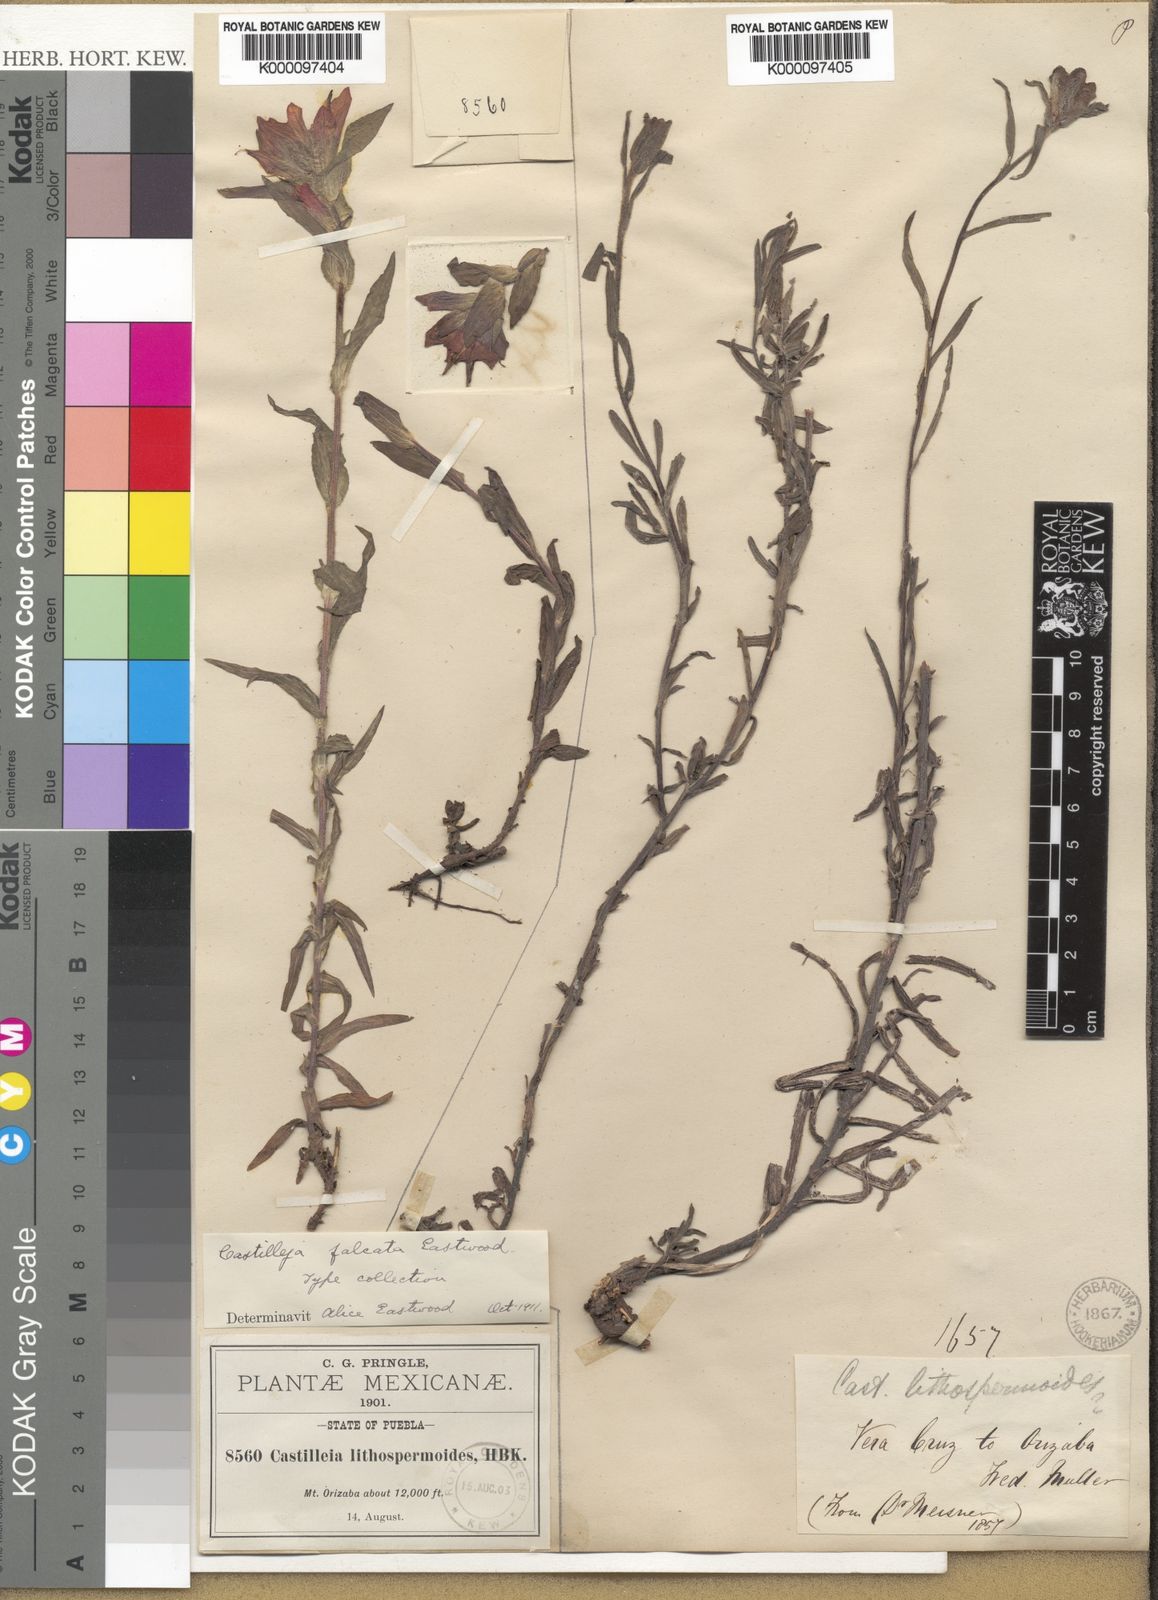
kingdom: Plantae
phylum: Tracheophyta
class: Magnoliopsida
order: Lamiales
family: Orobanchaceae
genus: Castilleja
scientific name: Castilleja hirsuta
